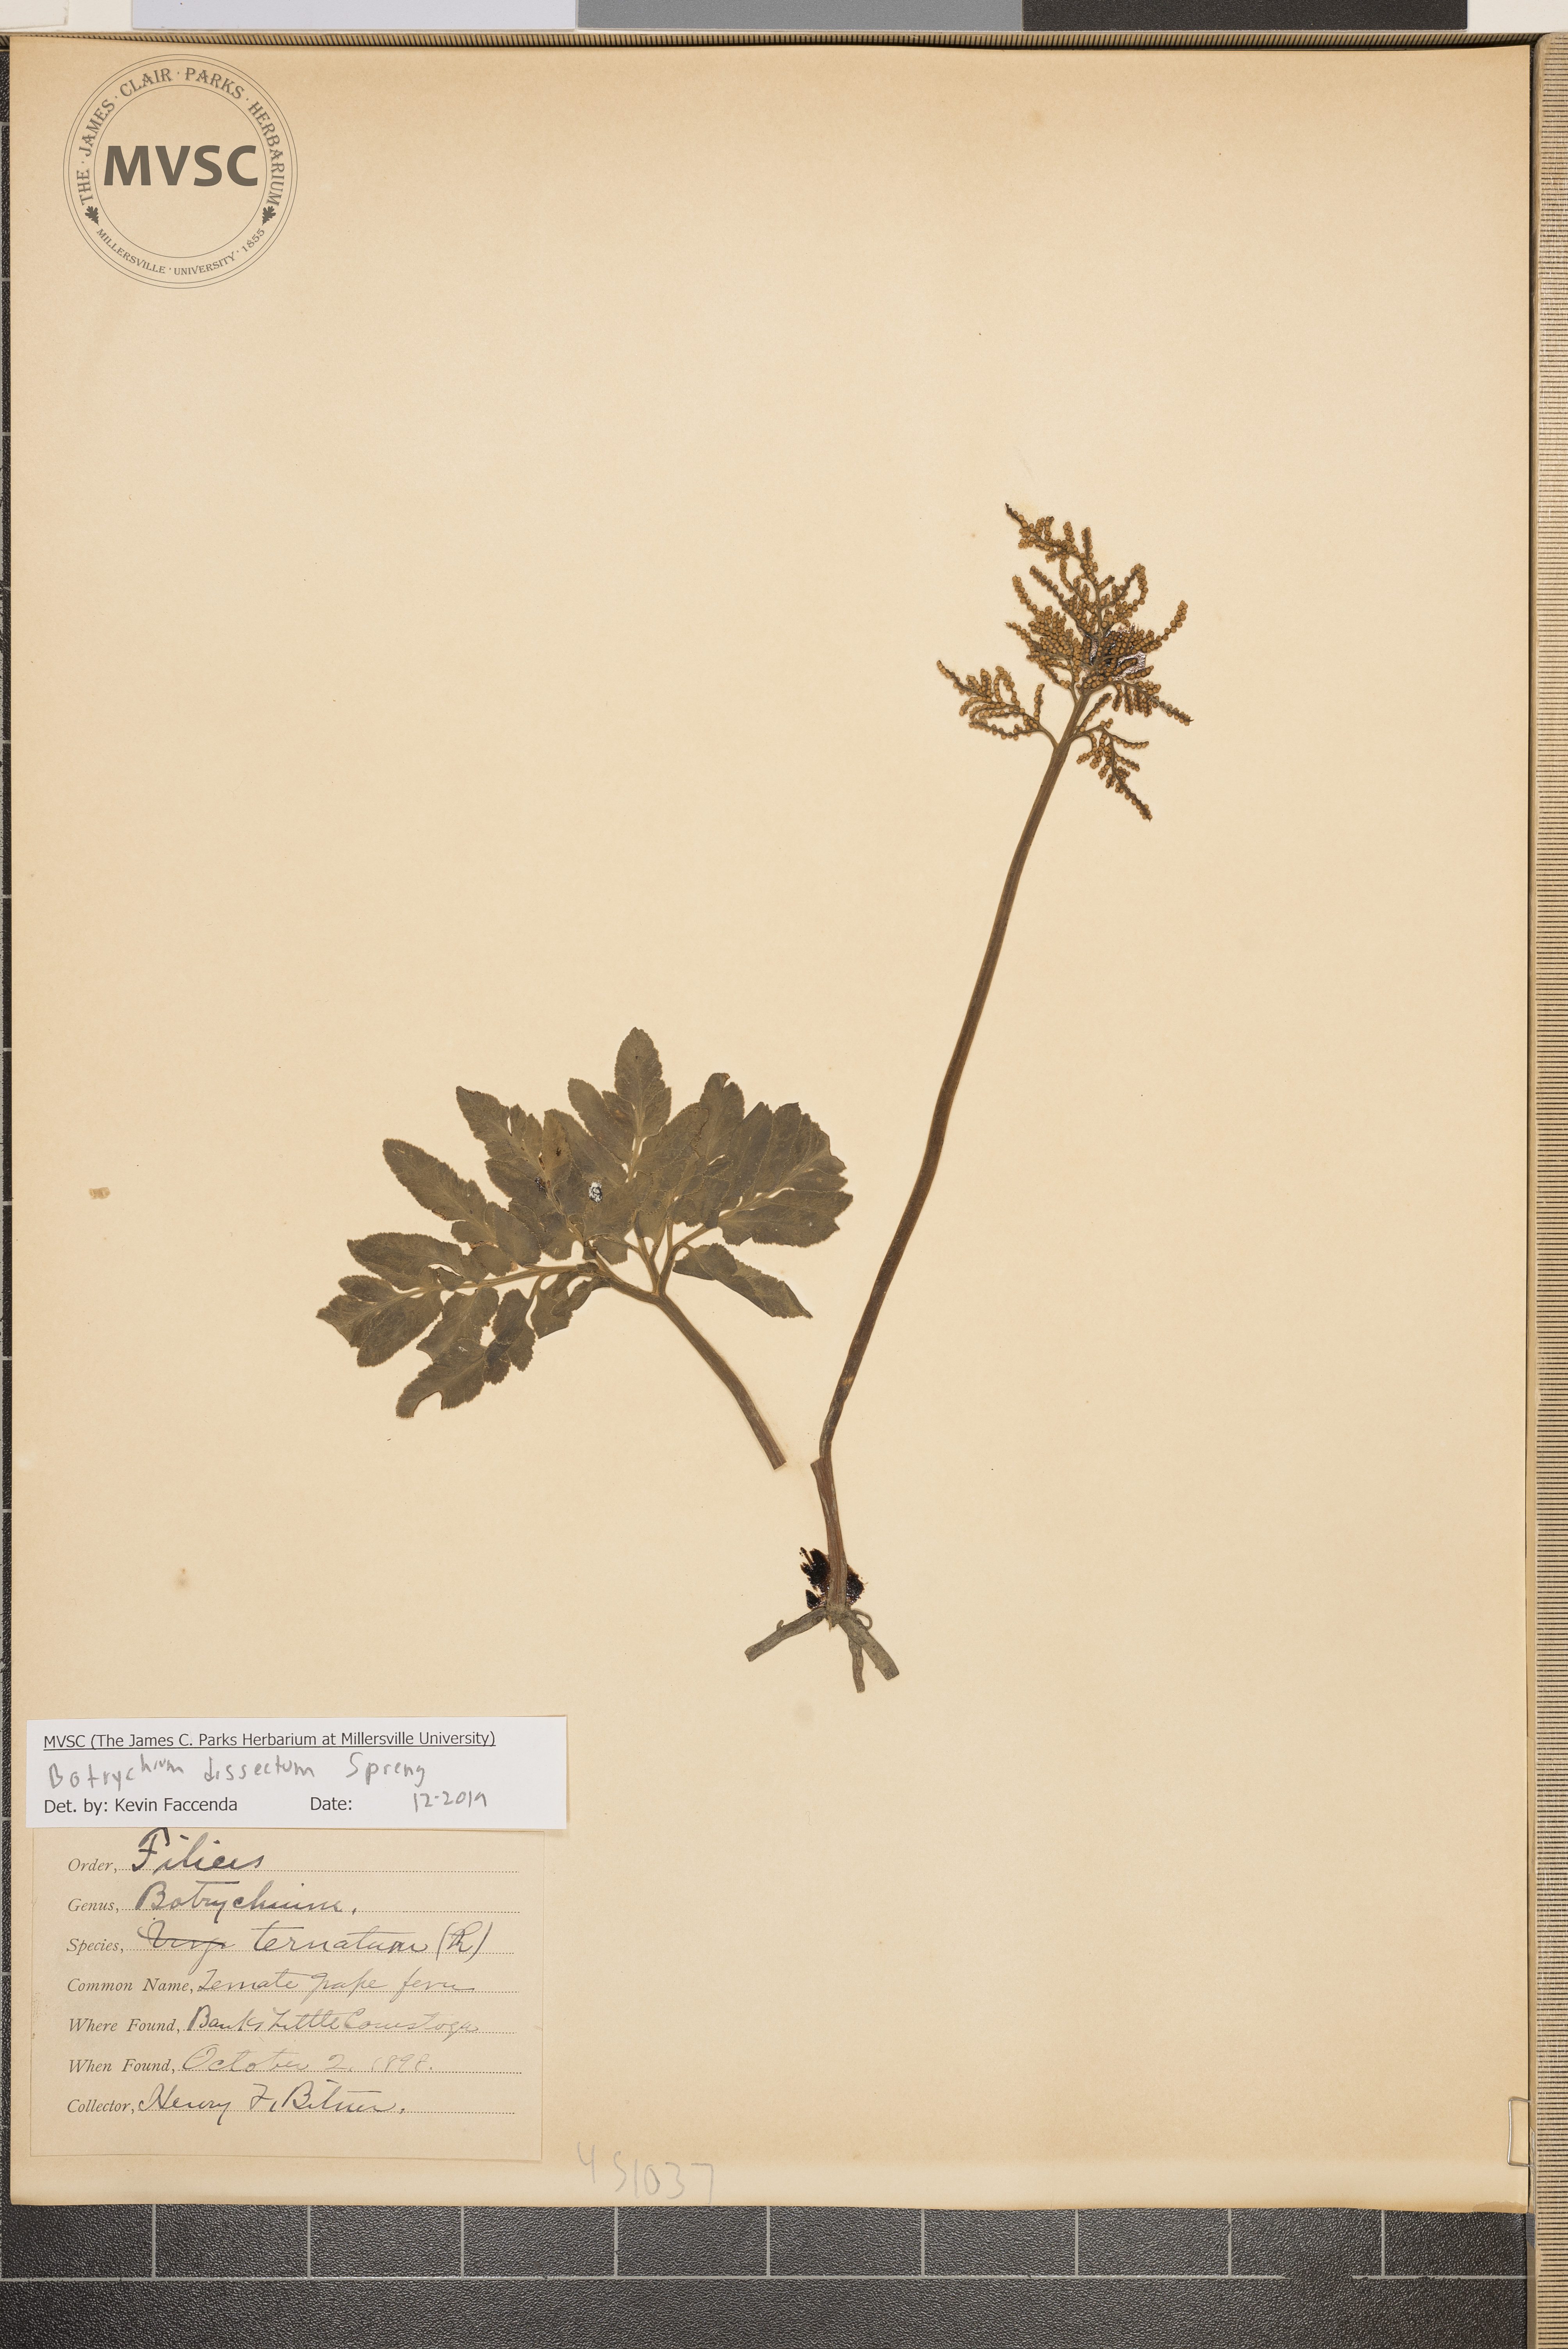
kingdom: Plantae
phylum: Tracheophyta
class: Polypodiopsida
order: Ophioglossales
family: Ophioglossaceae
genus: Sceptridium
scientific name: Sceptridium dissectum
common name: Cut-leaved grapefern
